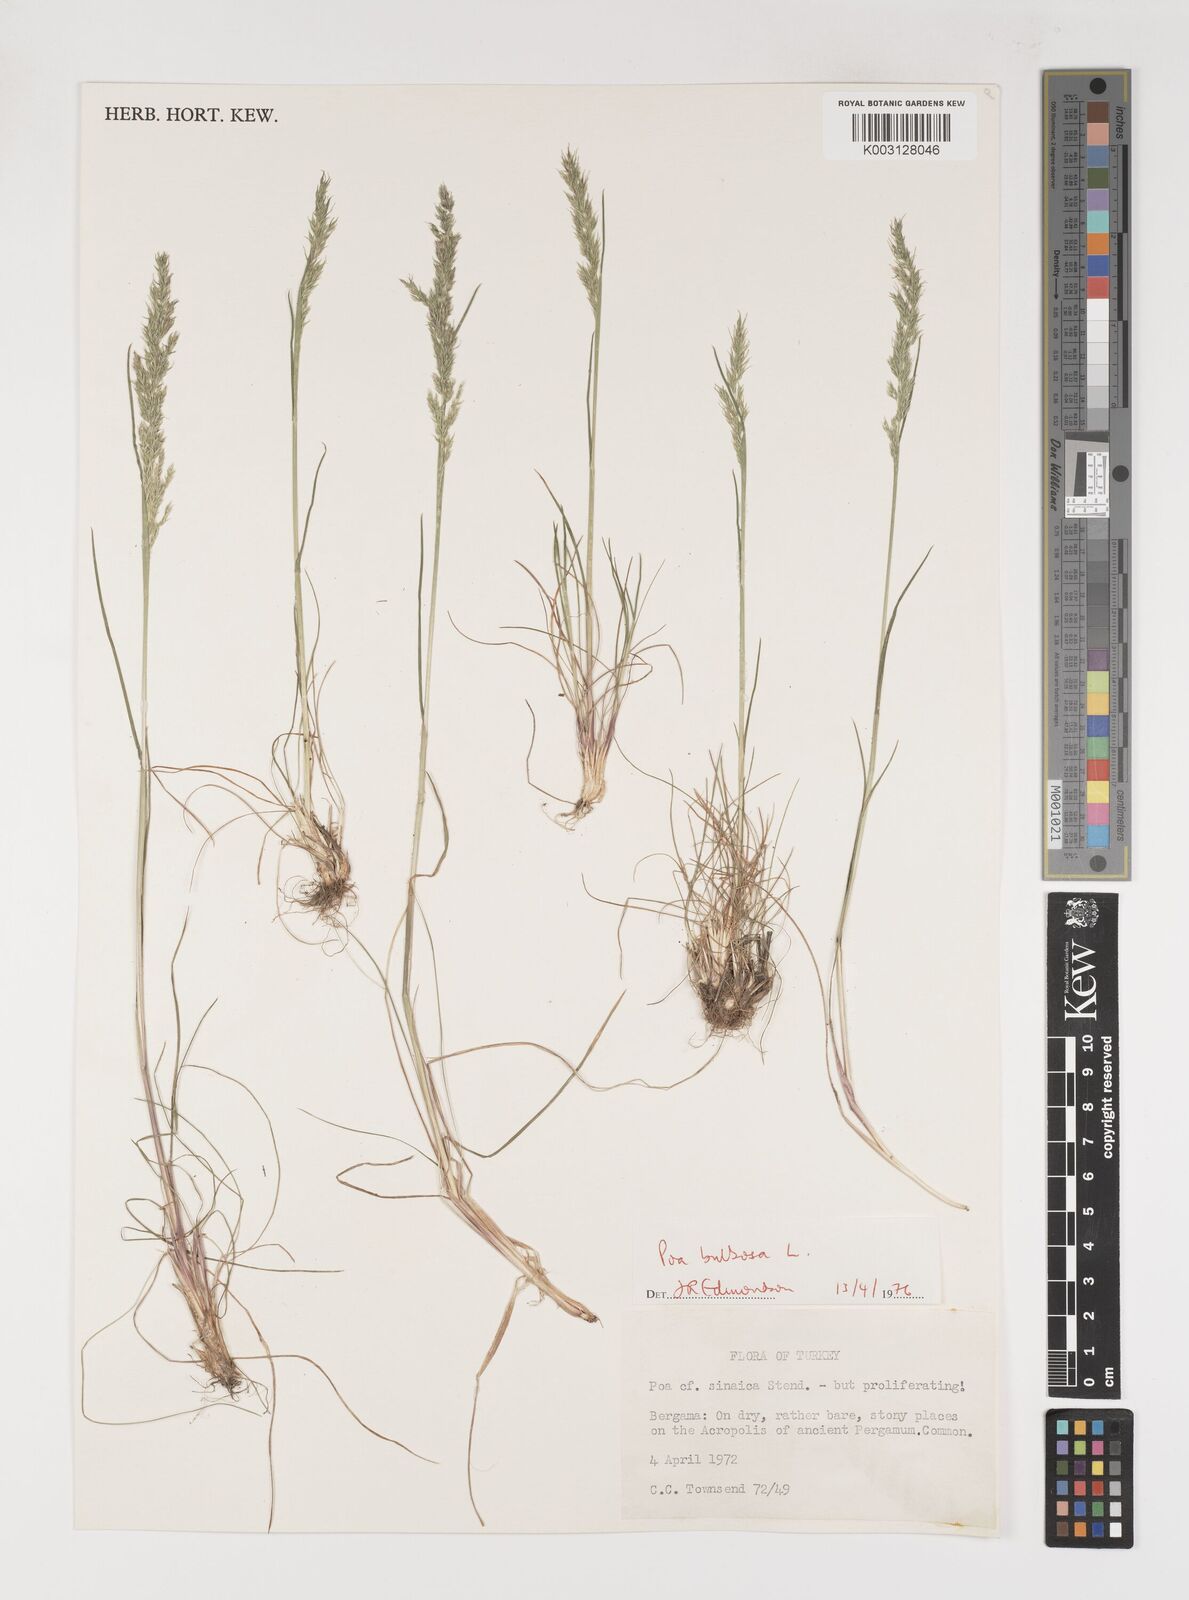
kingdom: Plantae
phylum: Tracheophyta
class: Liliopsida
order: Poales
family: Poaceae
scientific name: Poaceae
